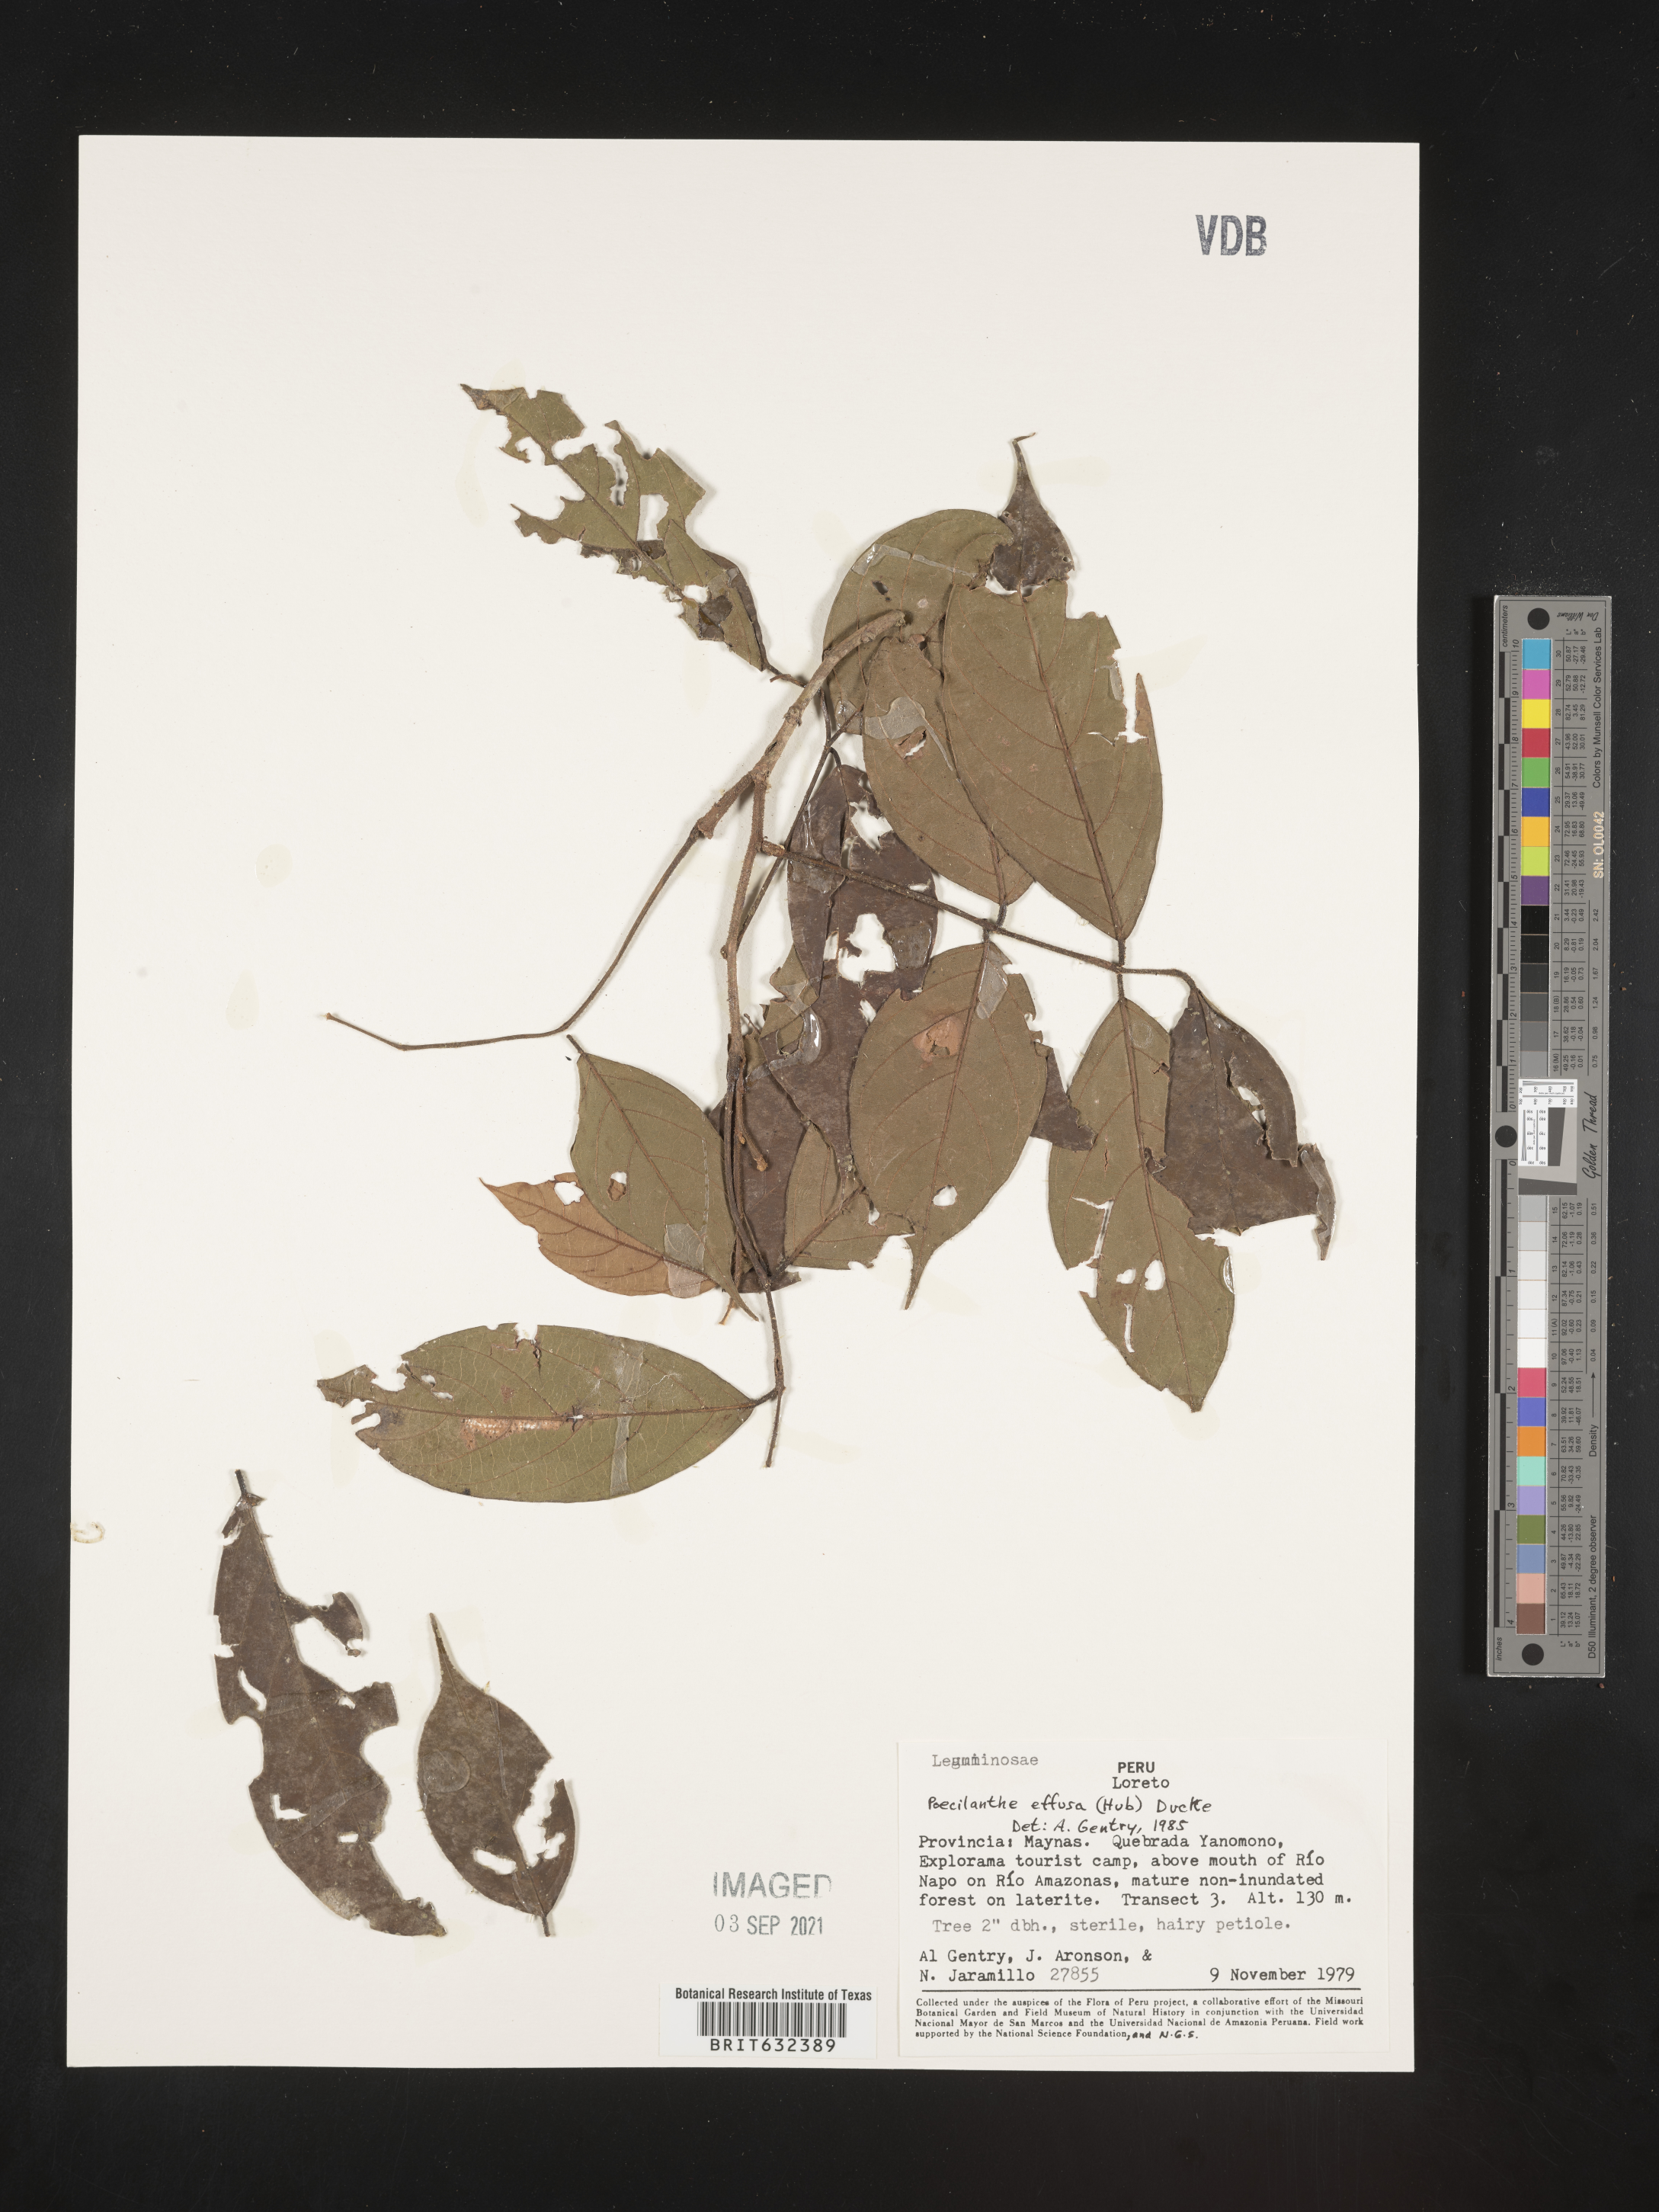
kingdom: Plantae
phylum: Tracheophyta
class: Magnoliopsida
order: Fabales
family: Fabaceae
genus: Poecilanthe
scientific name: Poecilanthe
